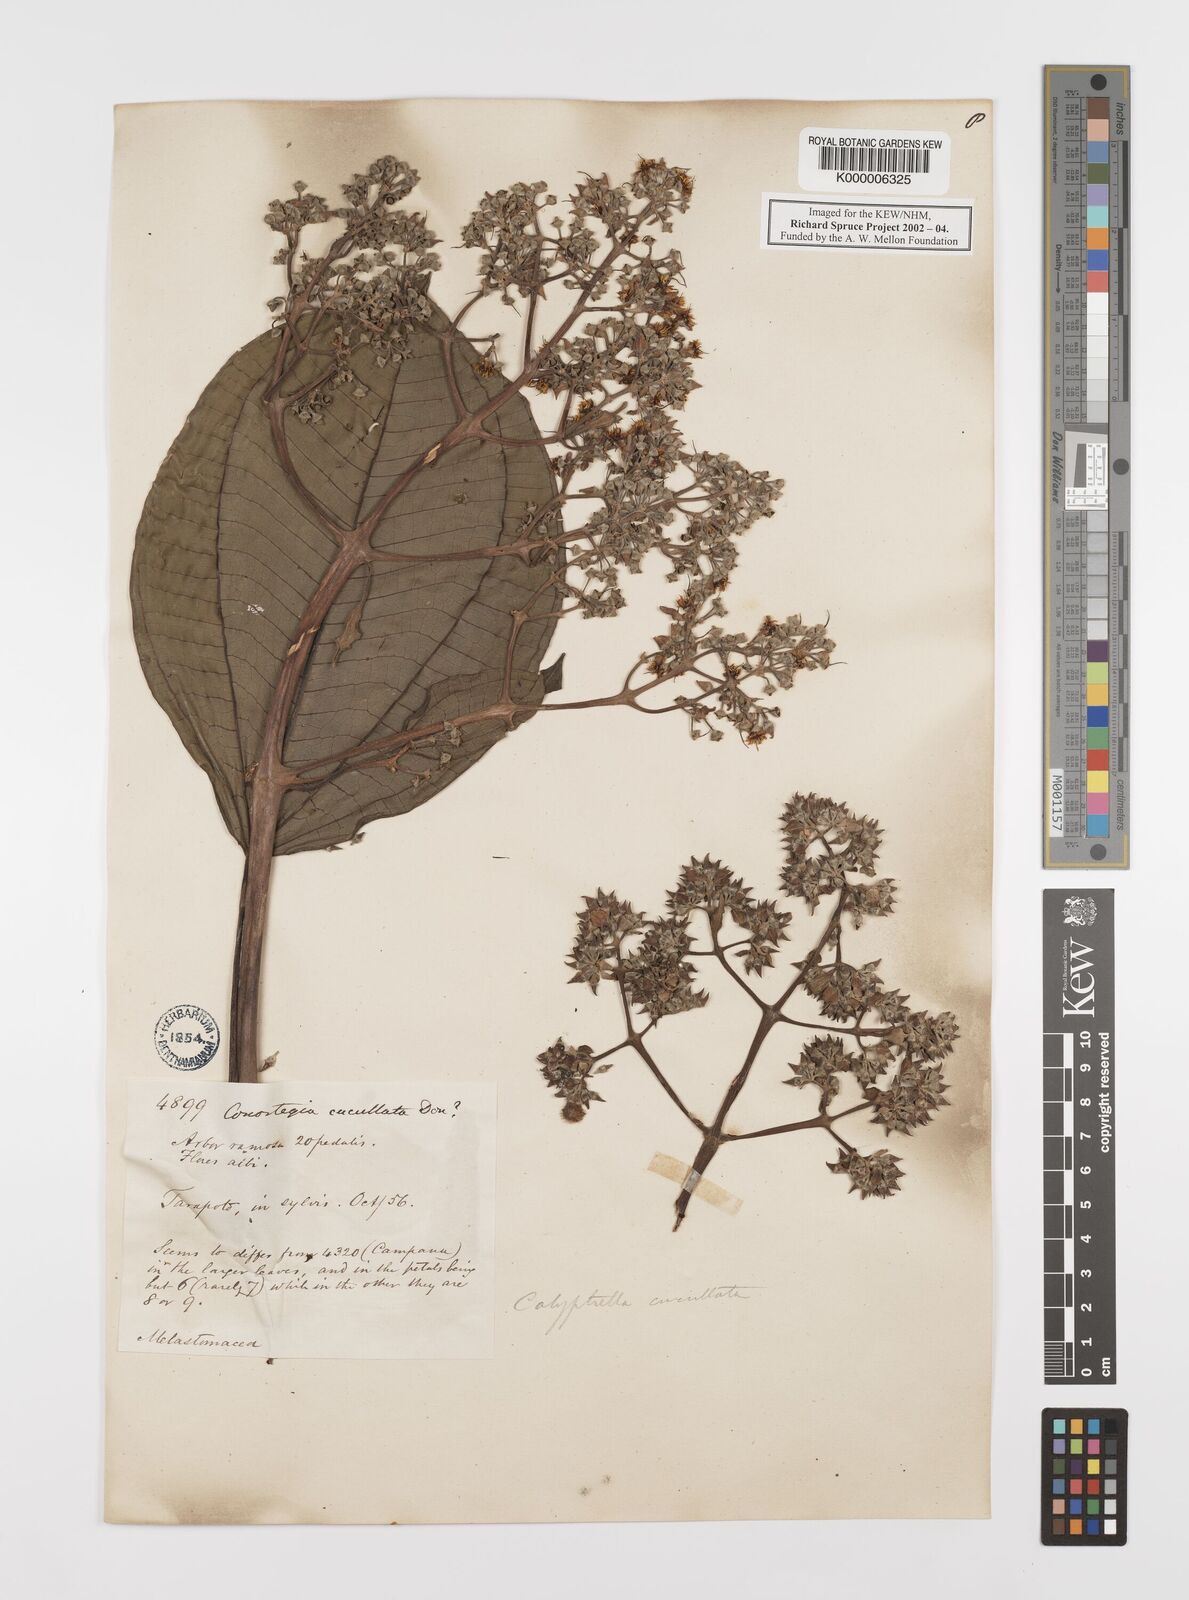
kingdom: Plantae
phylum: Tracheophyta
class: Magnoliopsida
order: Myrtales
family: Melastomataceae
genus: Graffenrieda
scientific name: Graffenrieda cucullata
